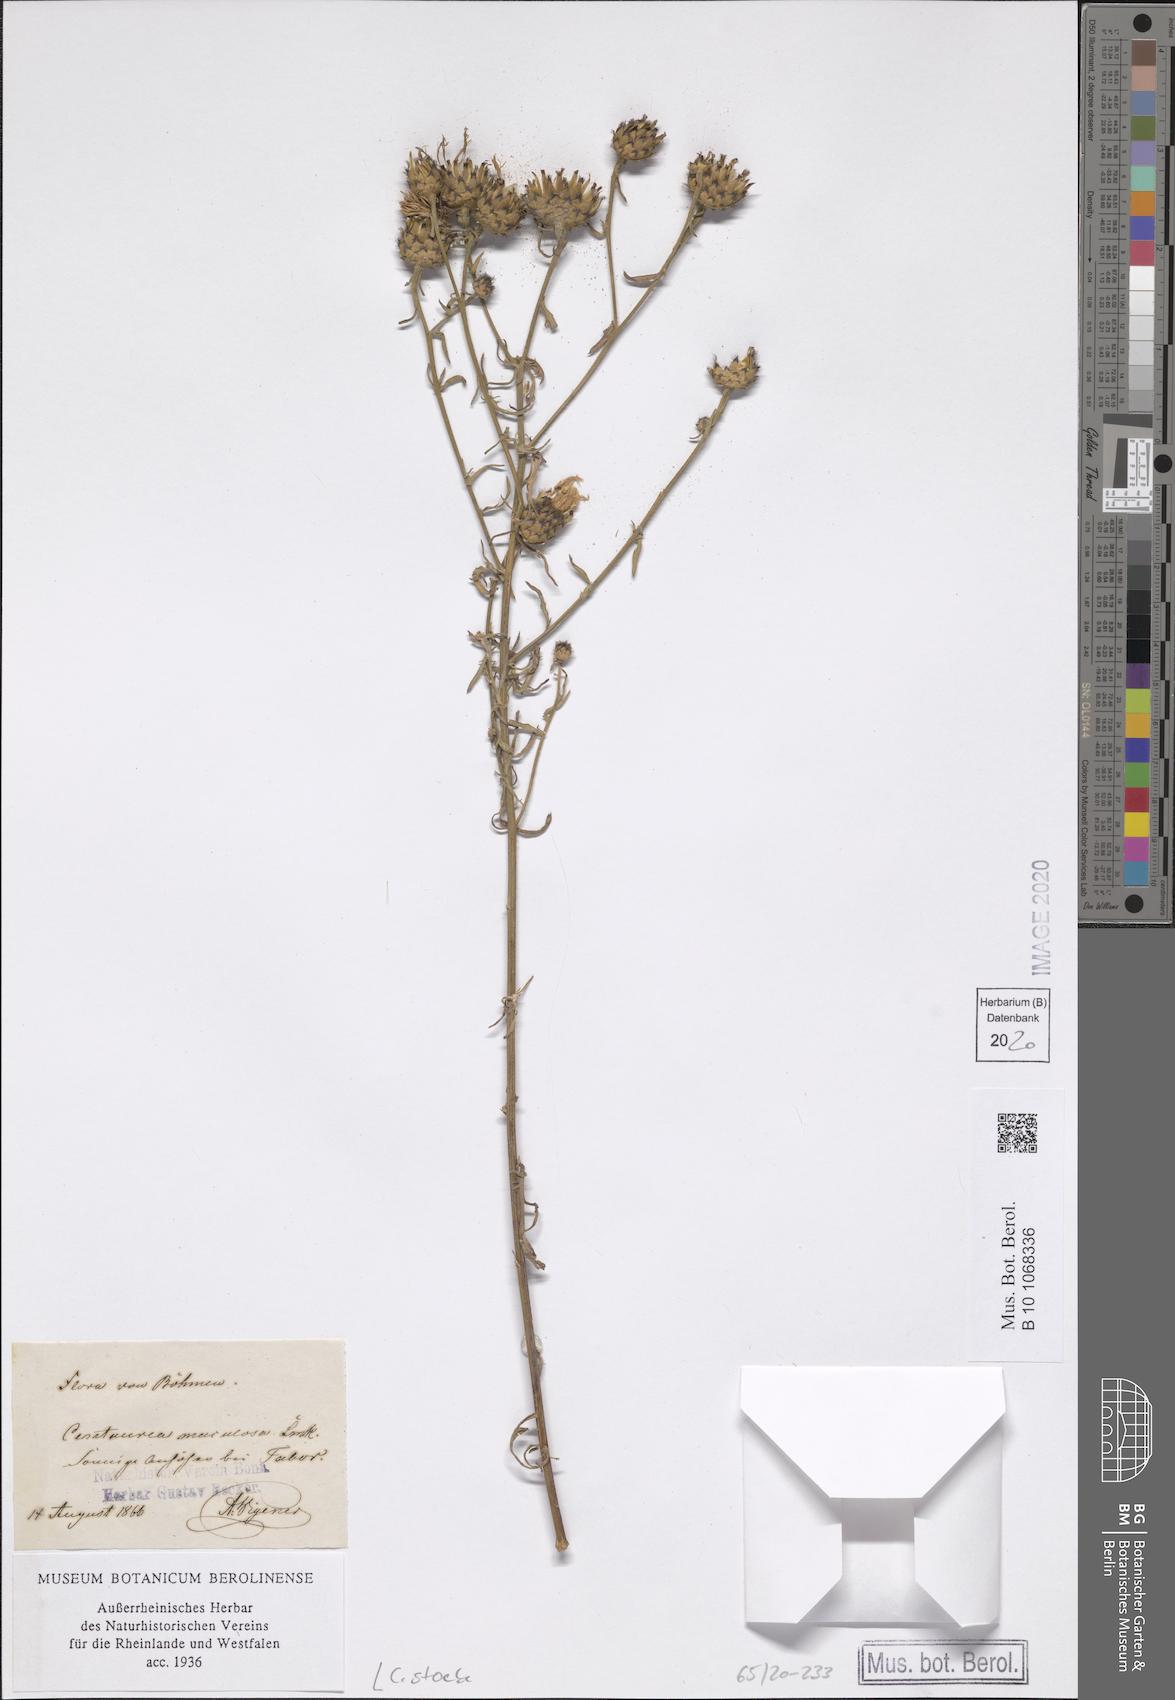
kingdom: Plantae
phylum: Tracheophyta
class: Magnoliopsida
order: Asterales
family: Asteraceae
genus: Centaurea
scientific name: Centaurea stoebe
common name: Spotted knapweed
